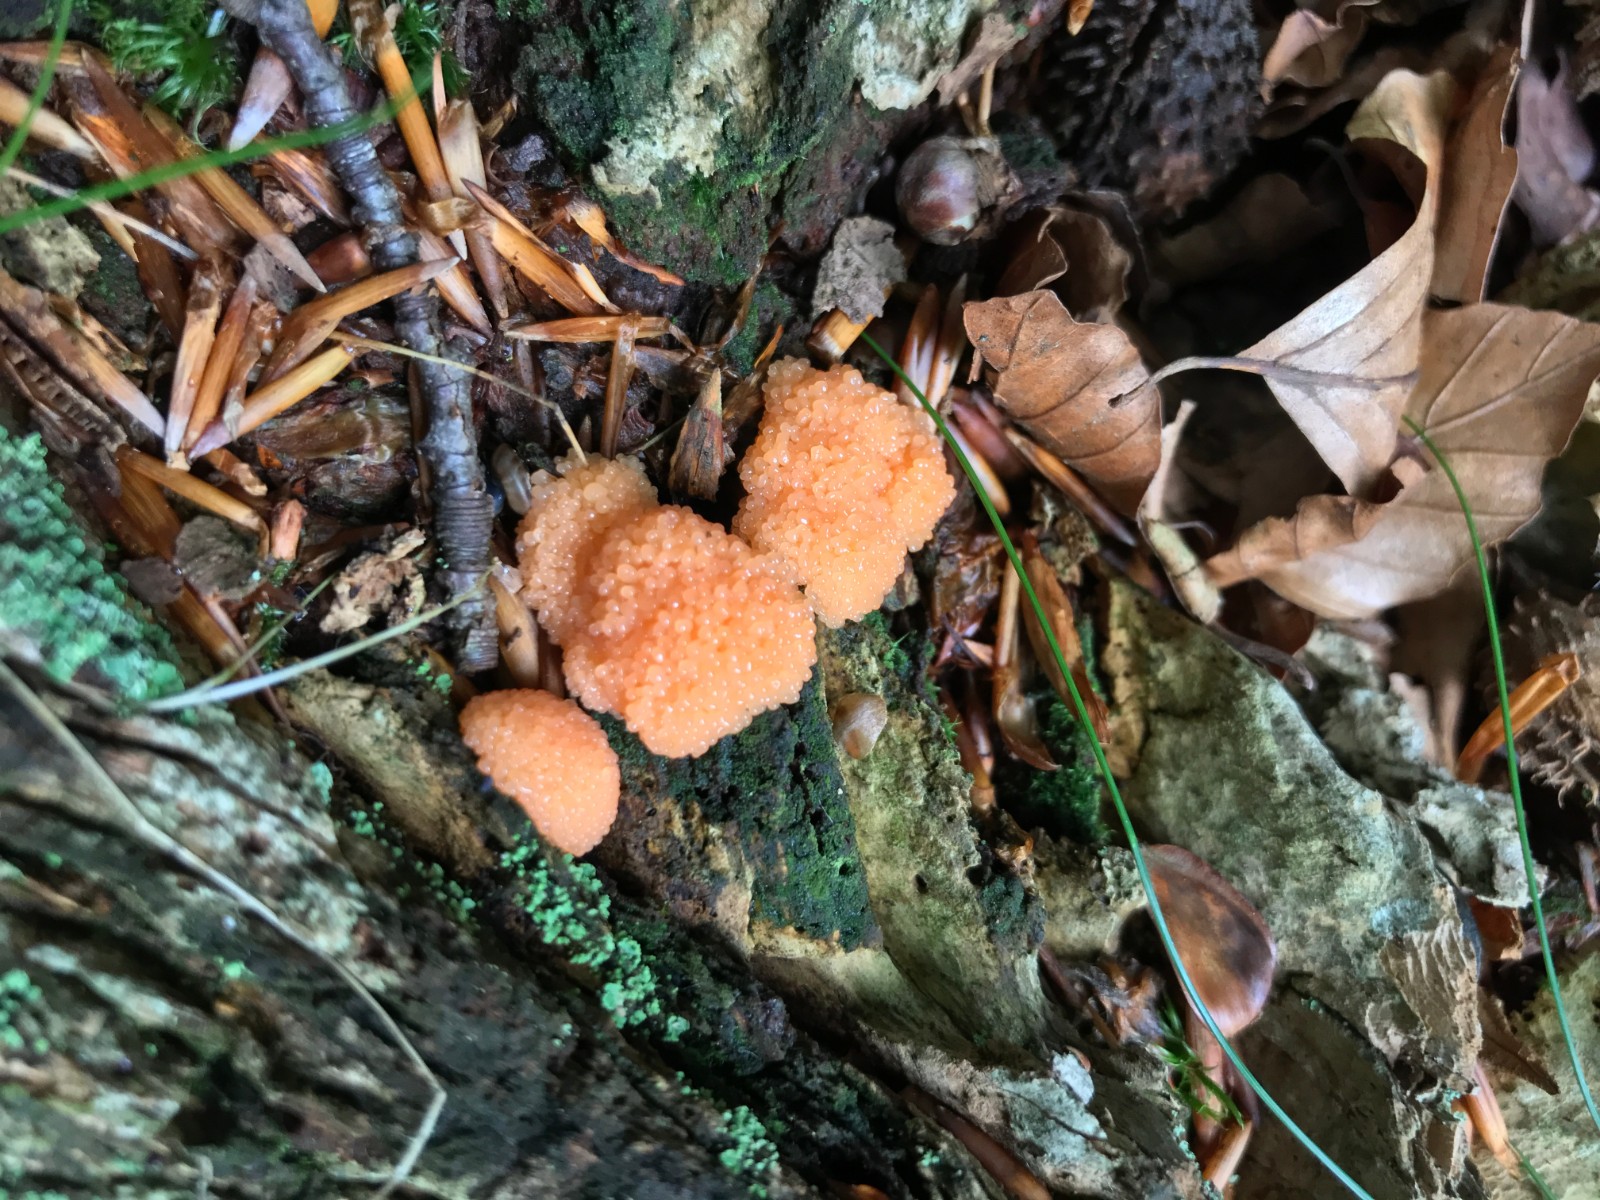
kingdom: Protozoa
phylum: Mycetozoa
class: Myxomycetes
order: Cribrariales
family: Tubiferaceae
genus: Tubifera
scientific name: Tubifera ferruginosa
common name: kanel-støvrør
